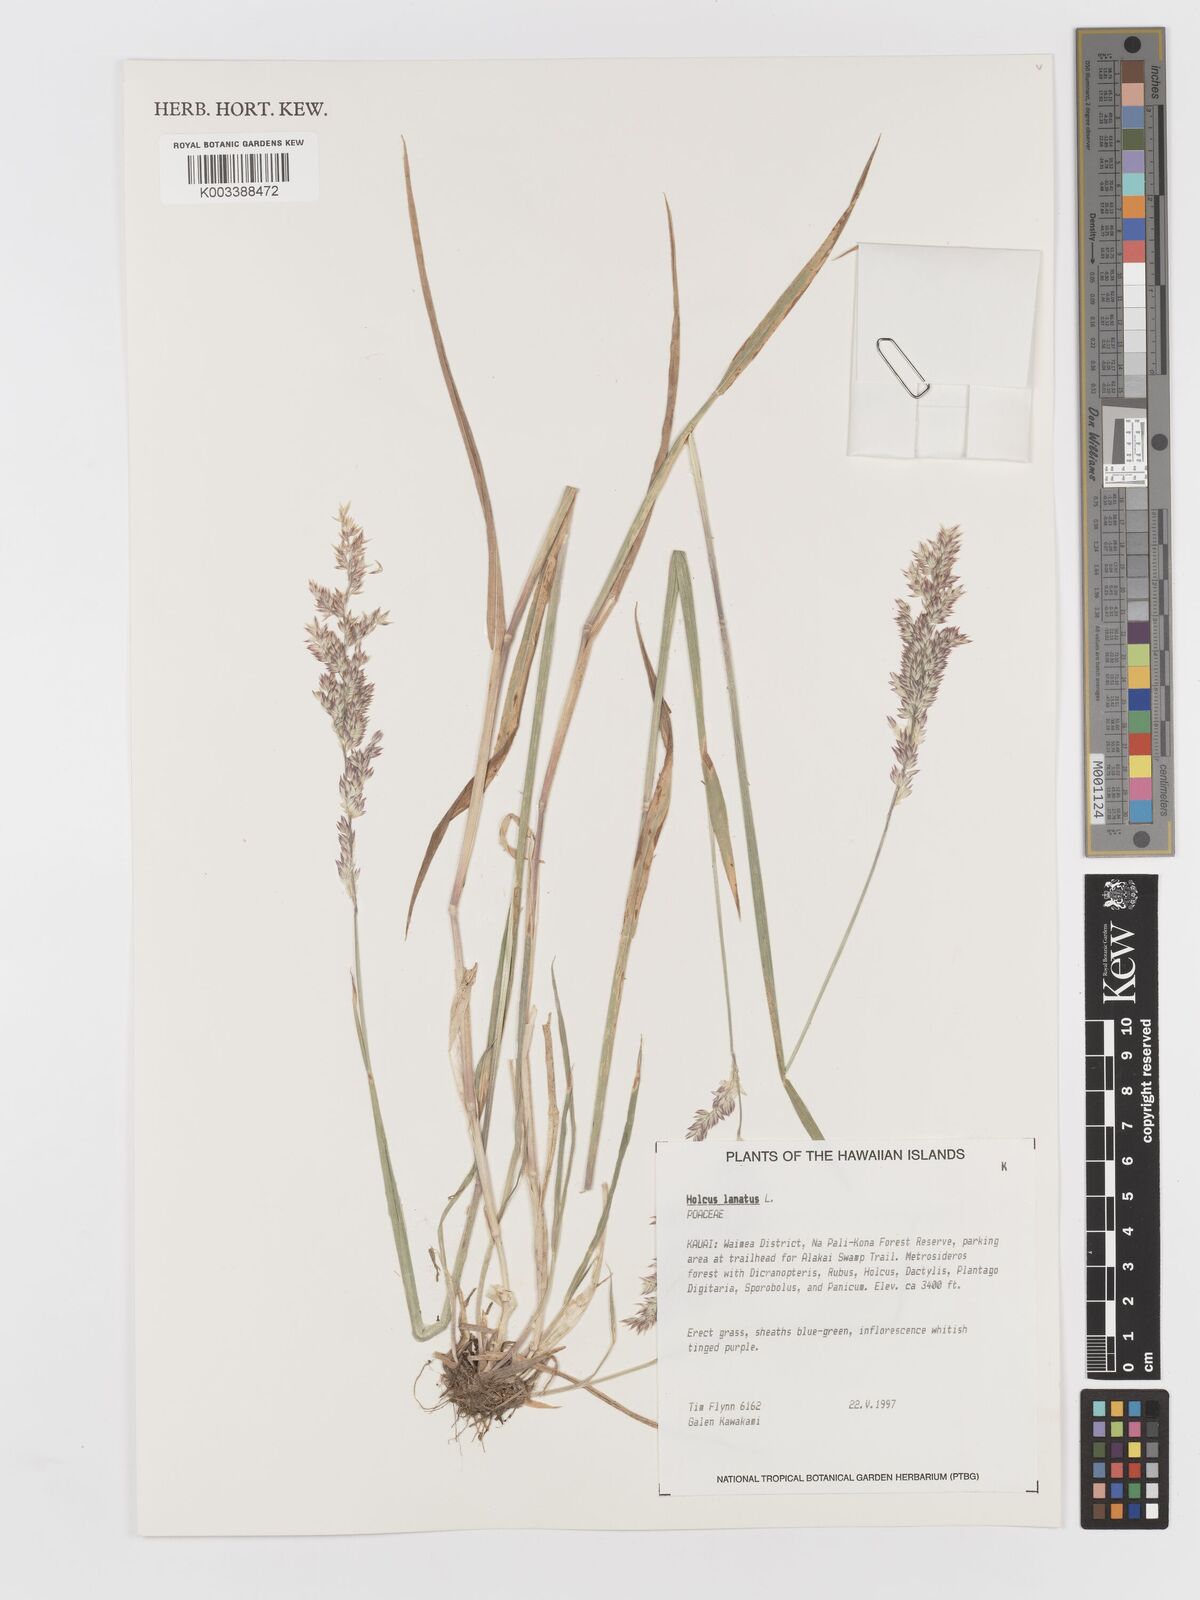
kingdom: Plantae
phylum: Tracheophyta
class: Liliopsida
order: Poales
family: Poaceae
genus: Holcus
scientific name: Holcus lanatus
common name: Yorkshire-fog
